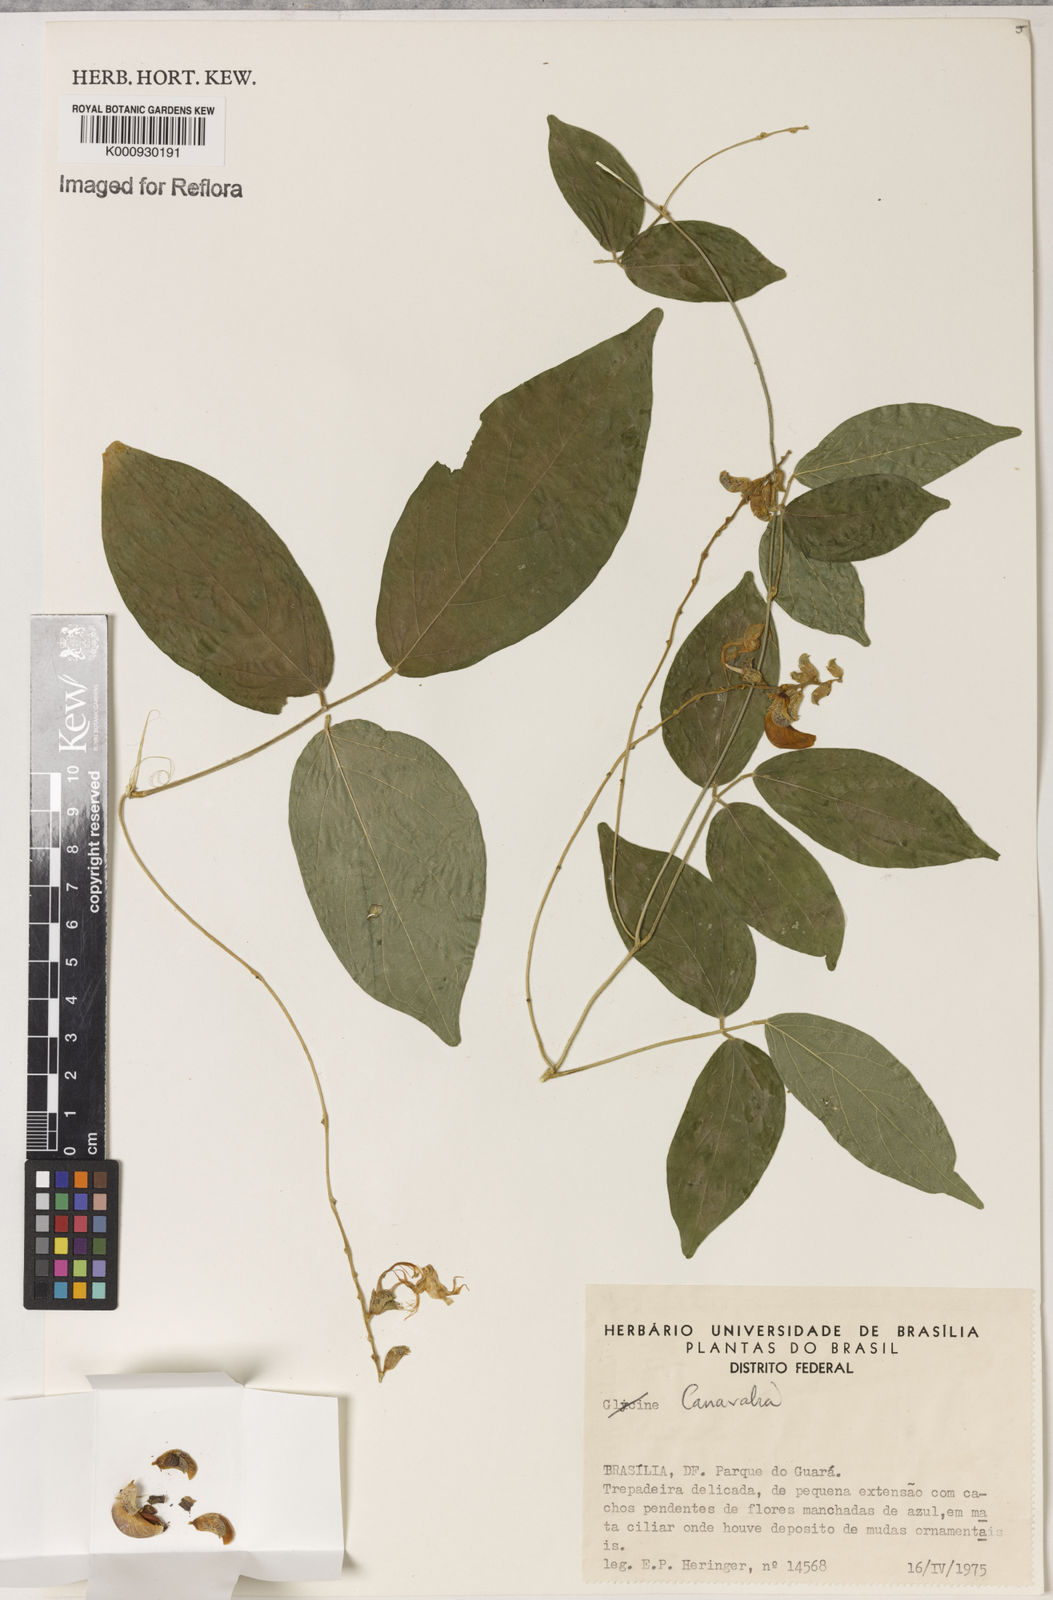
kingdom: Plantae
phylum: Tracheophyta
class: Magnoliopsida
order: Fabales
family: Fabaceae
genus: Canavalia
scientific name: Canavalia
